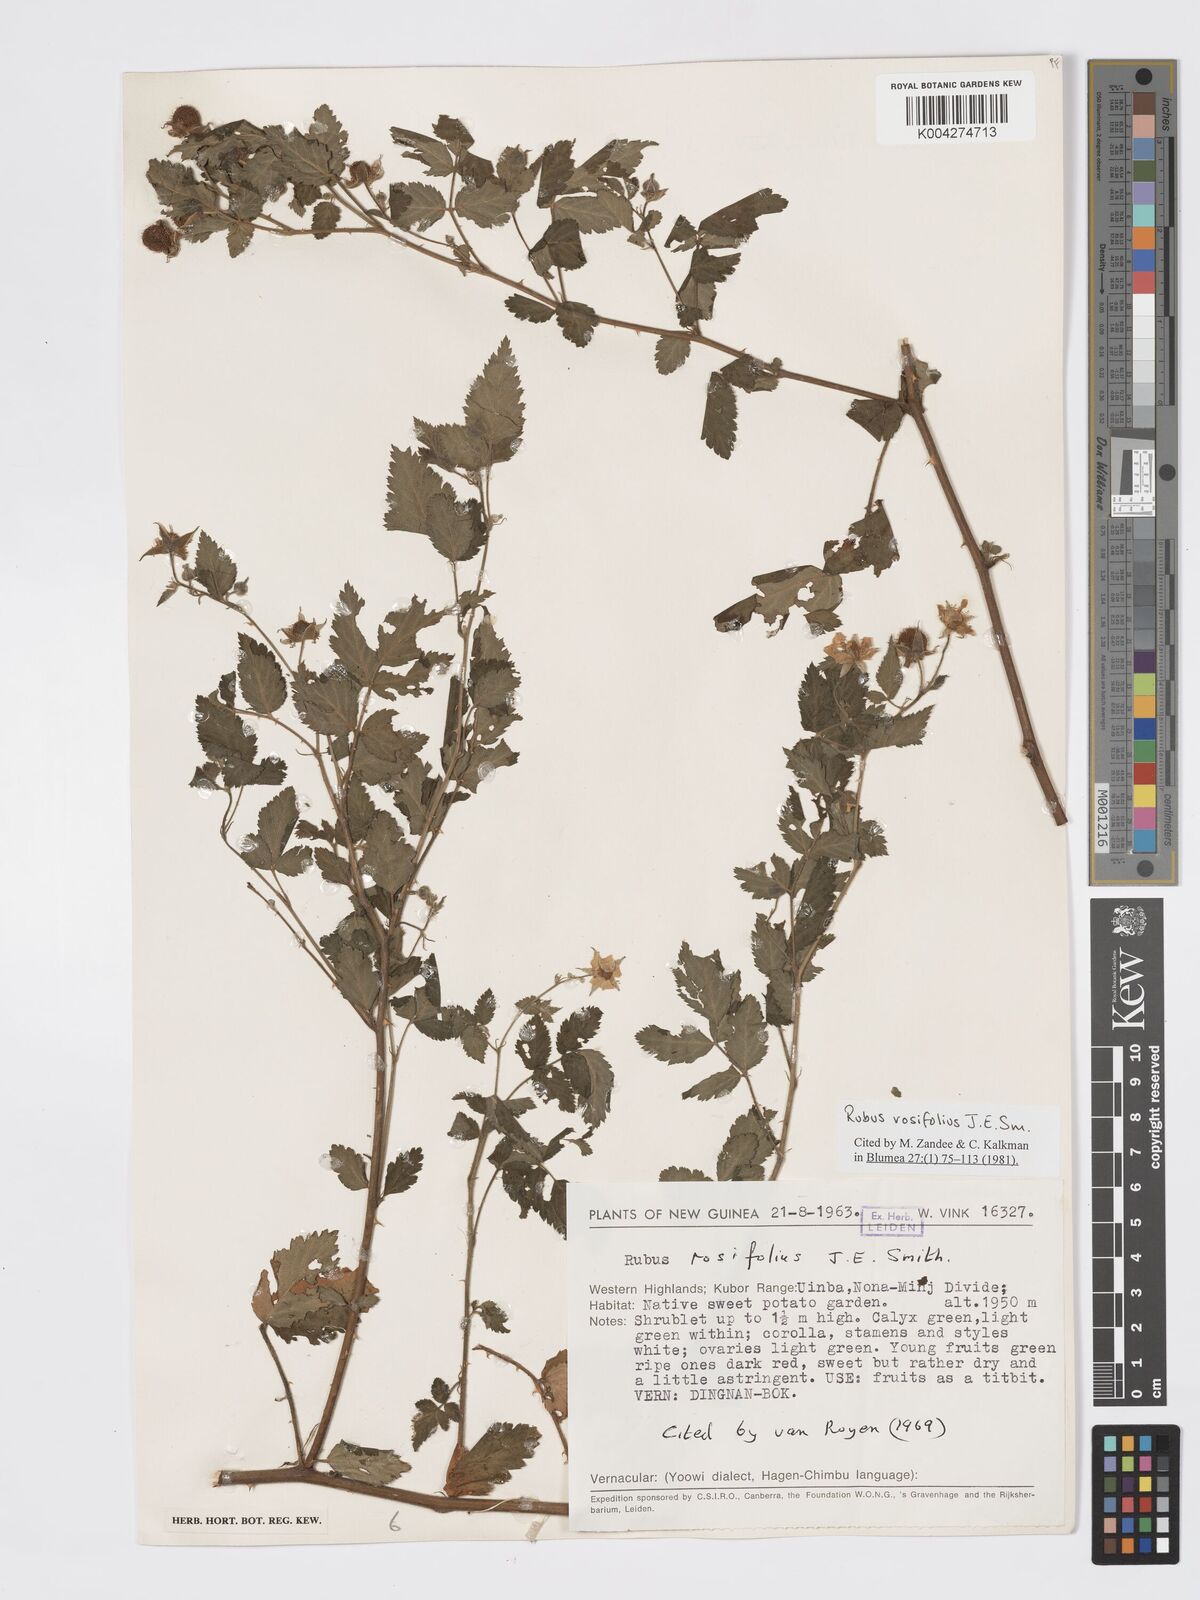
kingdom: Plantae
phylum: Tracheophyta
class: Magnoliopsida
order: Rosales
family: Rosaceae
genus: Rubus
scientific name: Rubus
